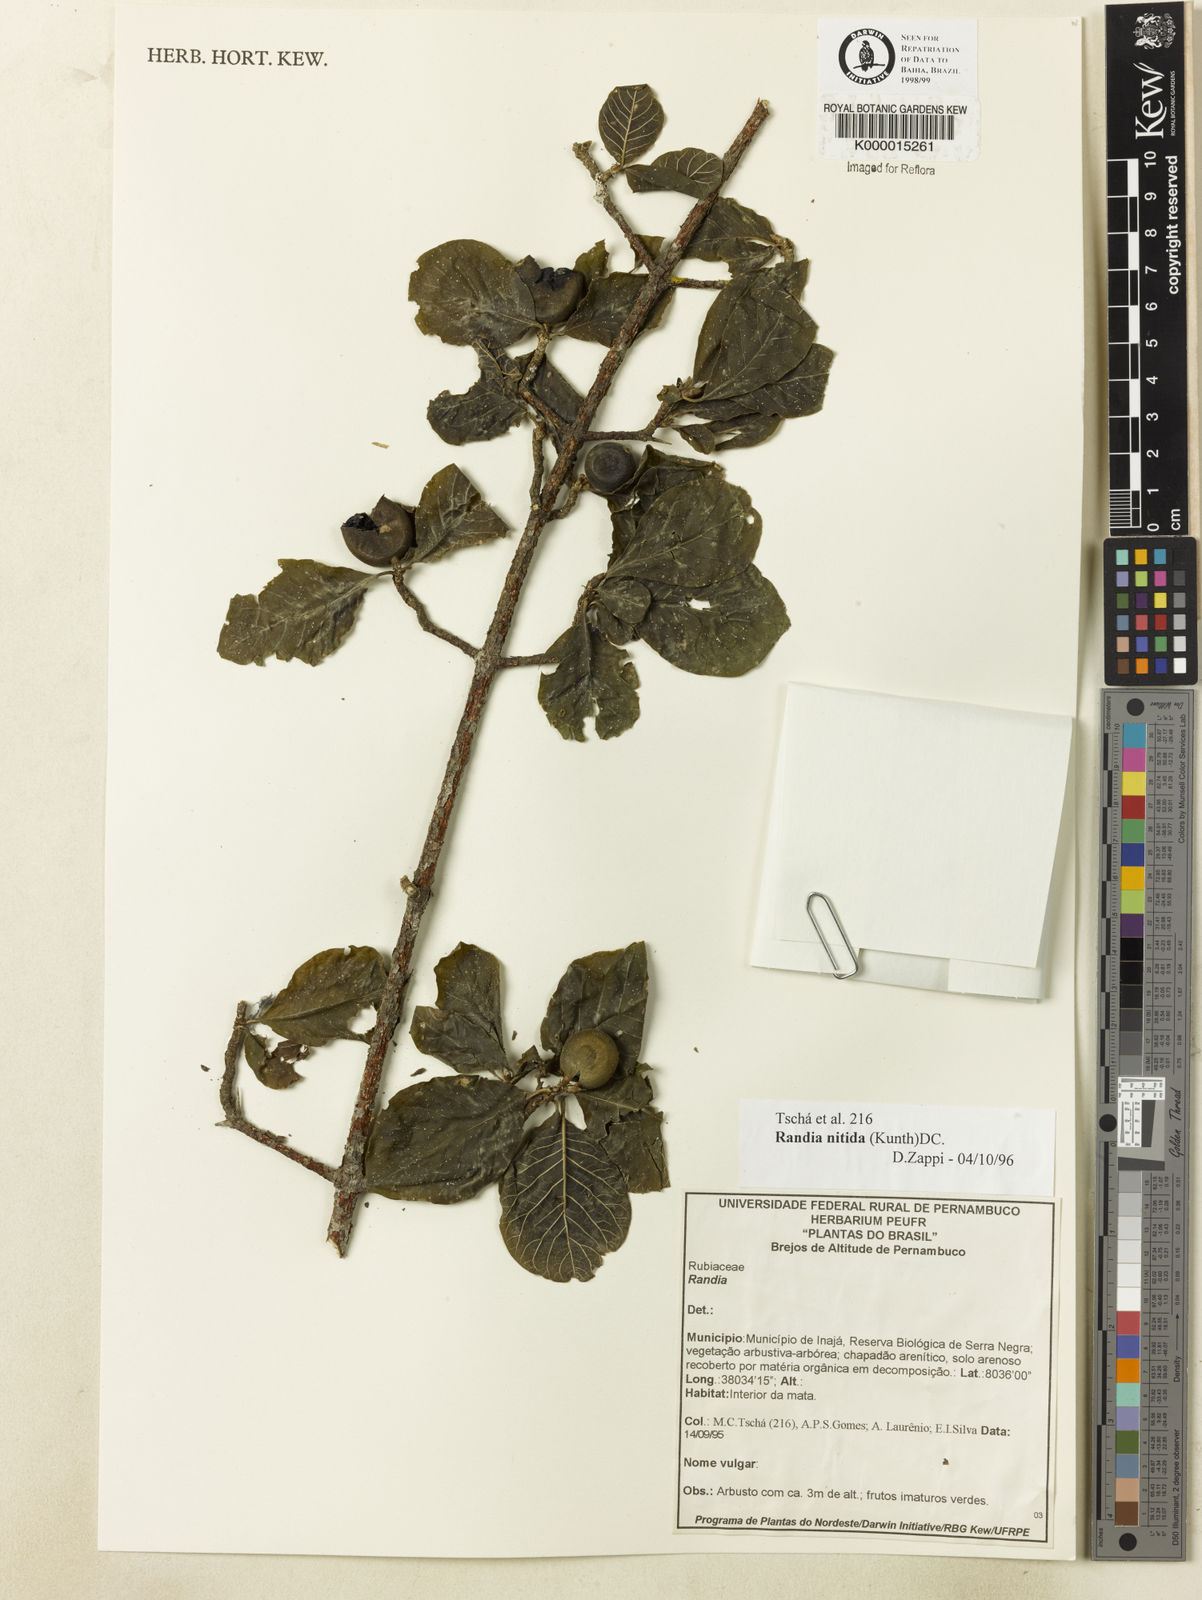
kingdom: Plantae
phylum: Tracheophyta
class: Magnoliopsida
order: Gentianales
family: Rubiaceae
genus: Randia
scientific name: Randia nitida
